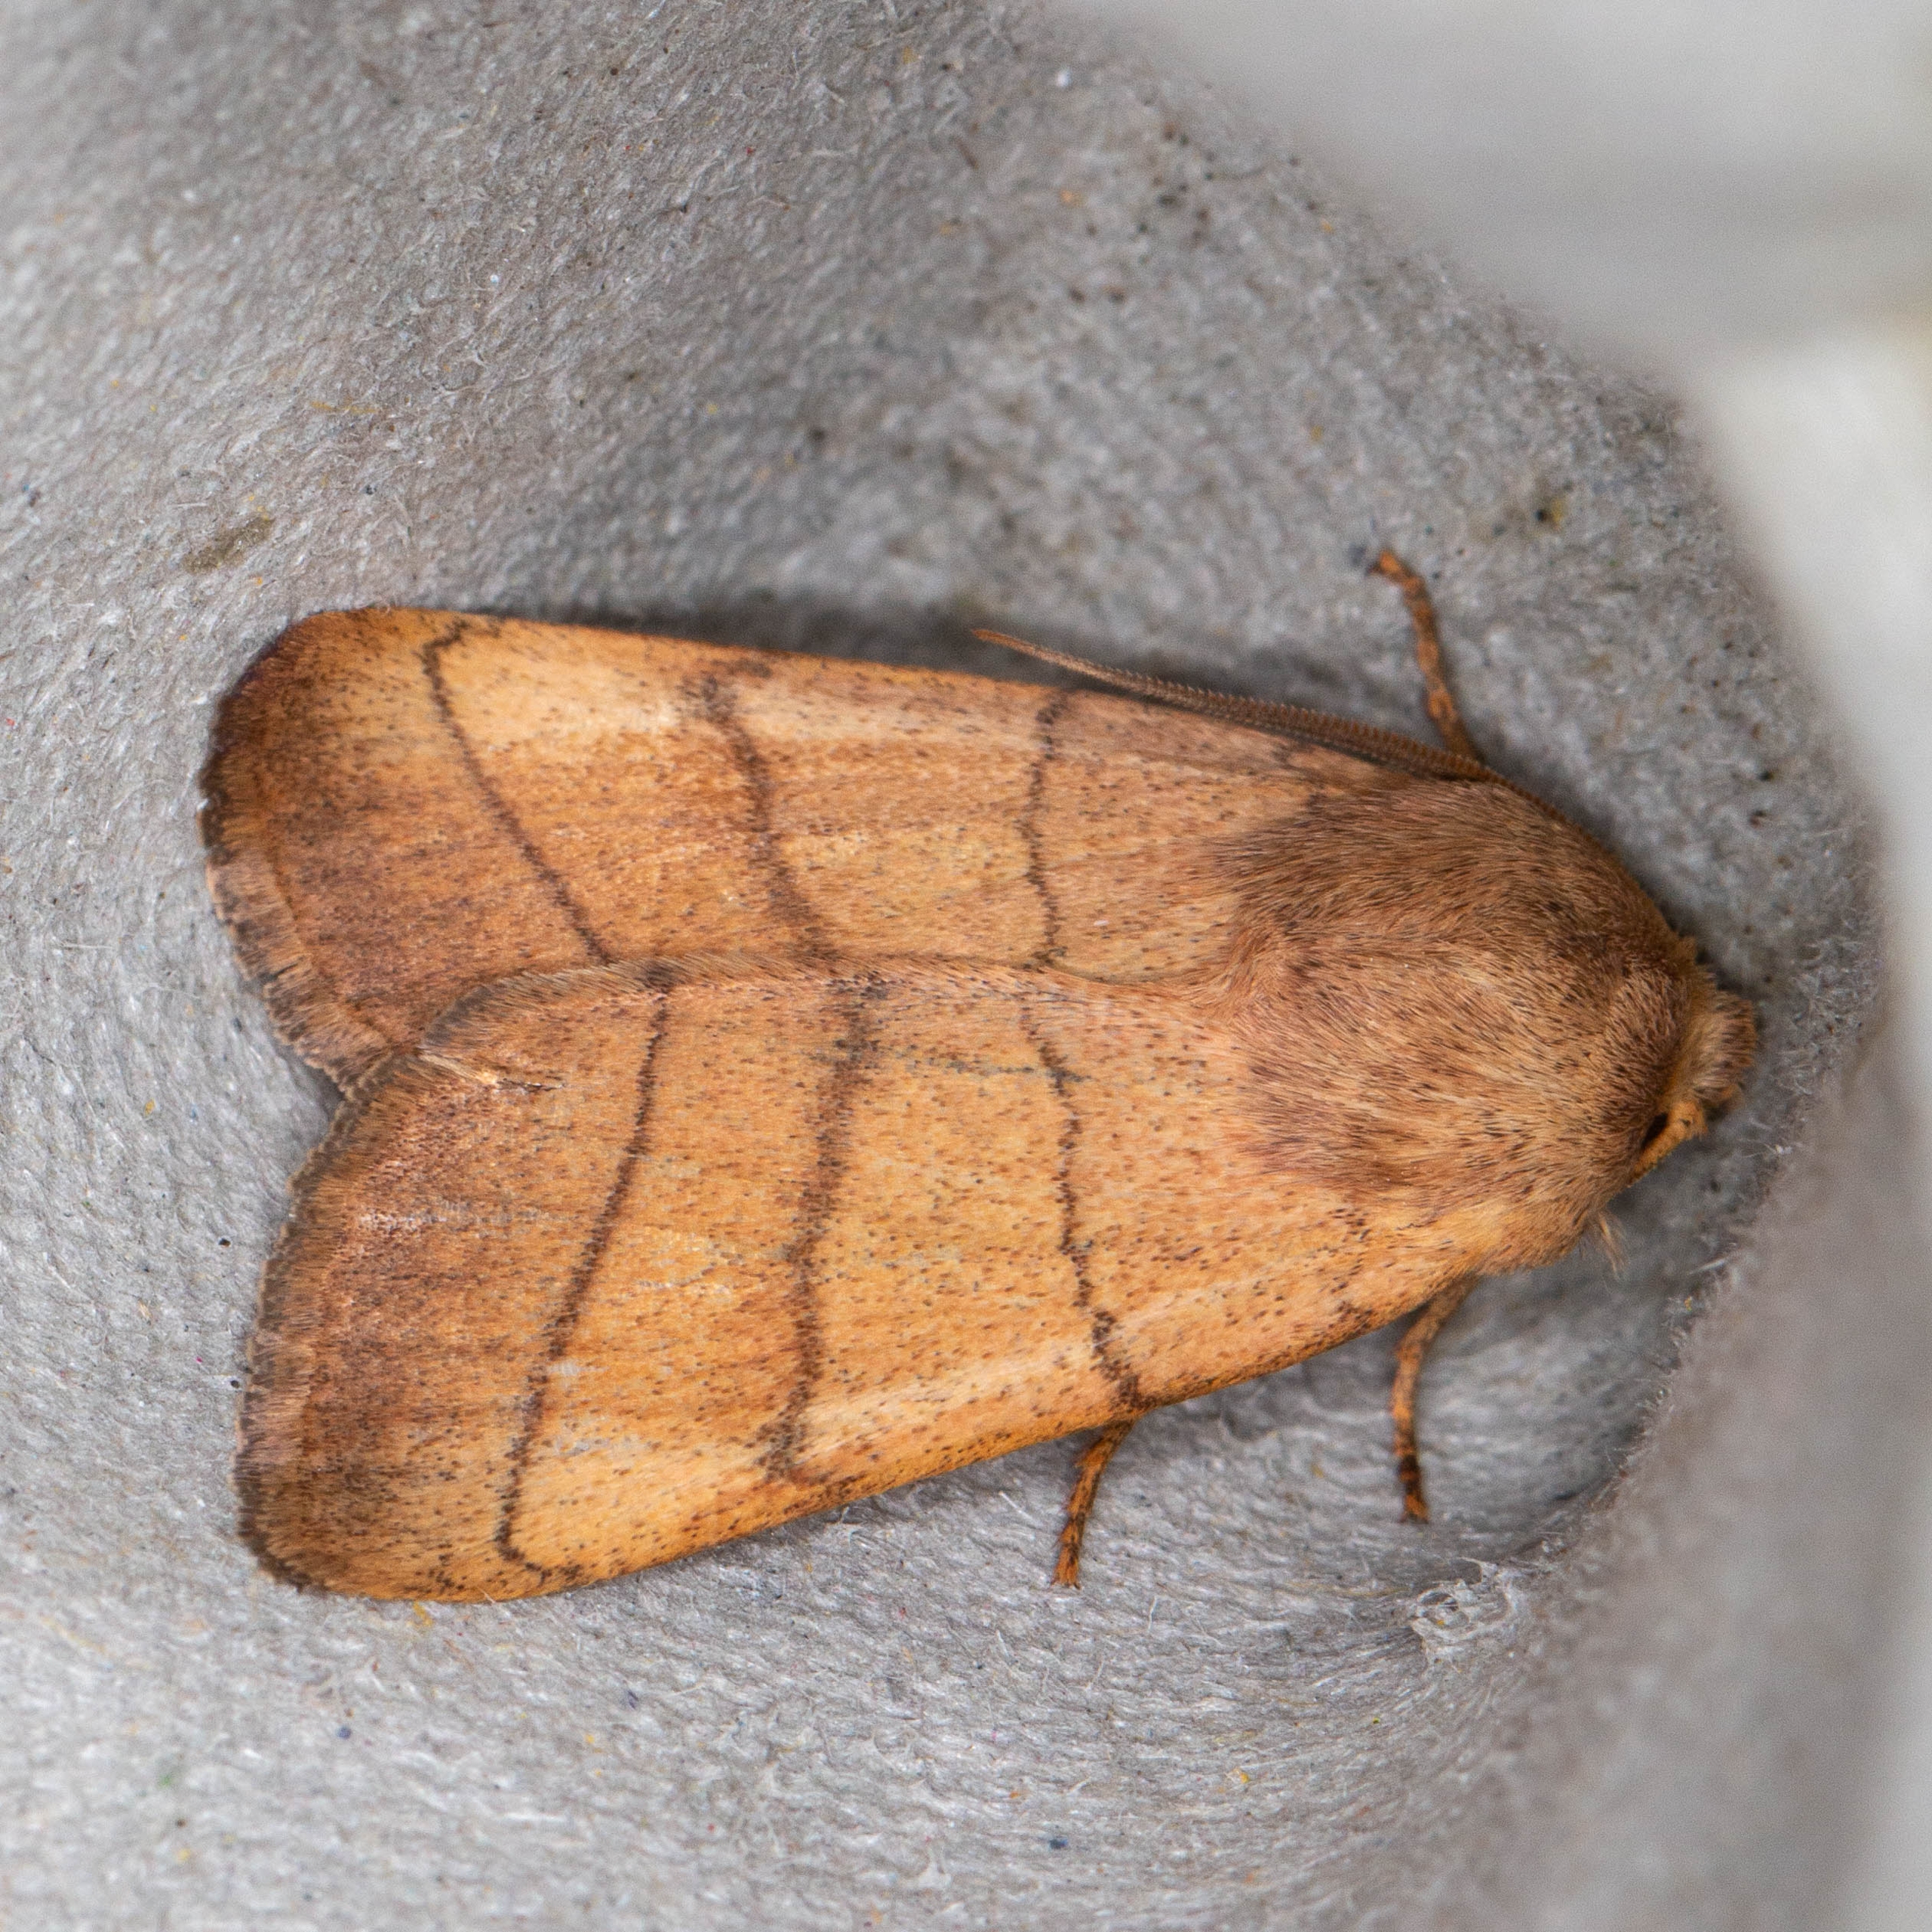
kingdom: Animalia
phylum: Arthropoda
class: Insecta
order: Lepidoptera
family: Noctuidae
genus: Charanyca
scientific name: Charanyca trigrammica
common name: Firestreget ugle
